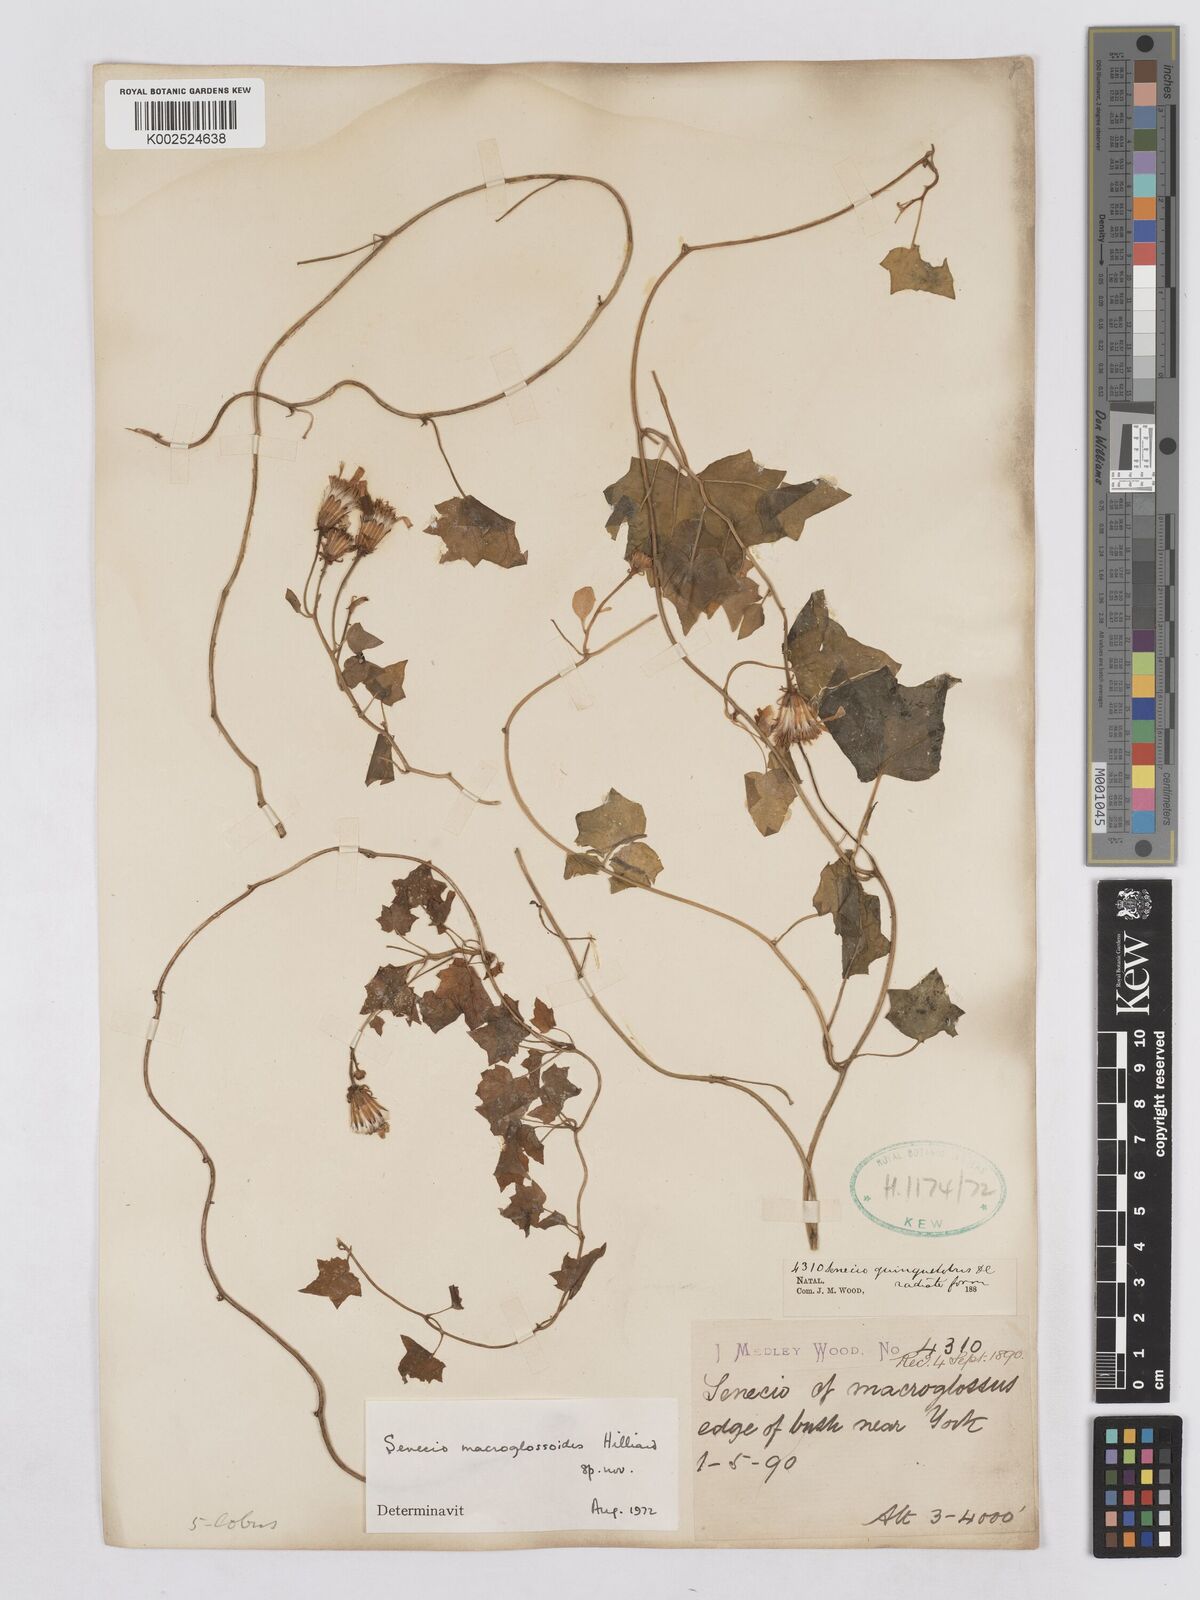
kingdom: Plantae
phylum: Tracheophyta
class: Magnoliopsida
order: Asterales
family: Asteraceae
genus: Senecio
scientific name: Senecio macroglossoides
